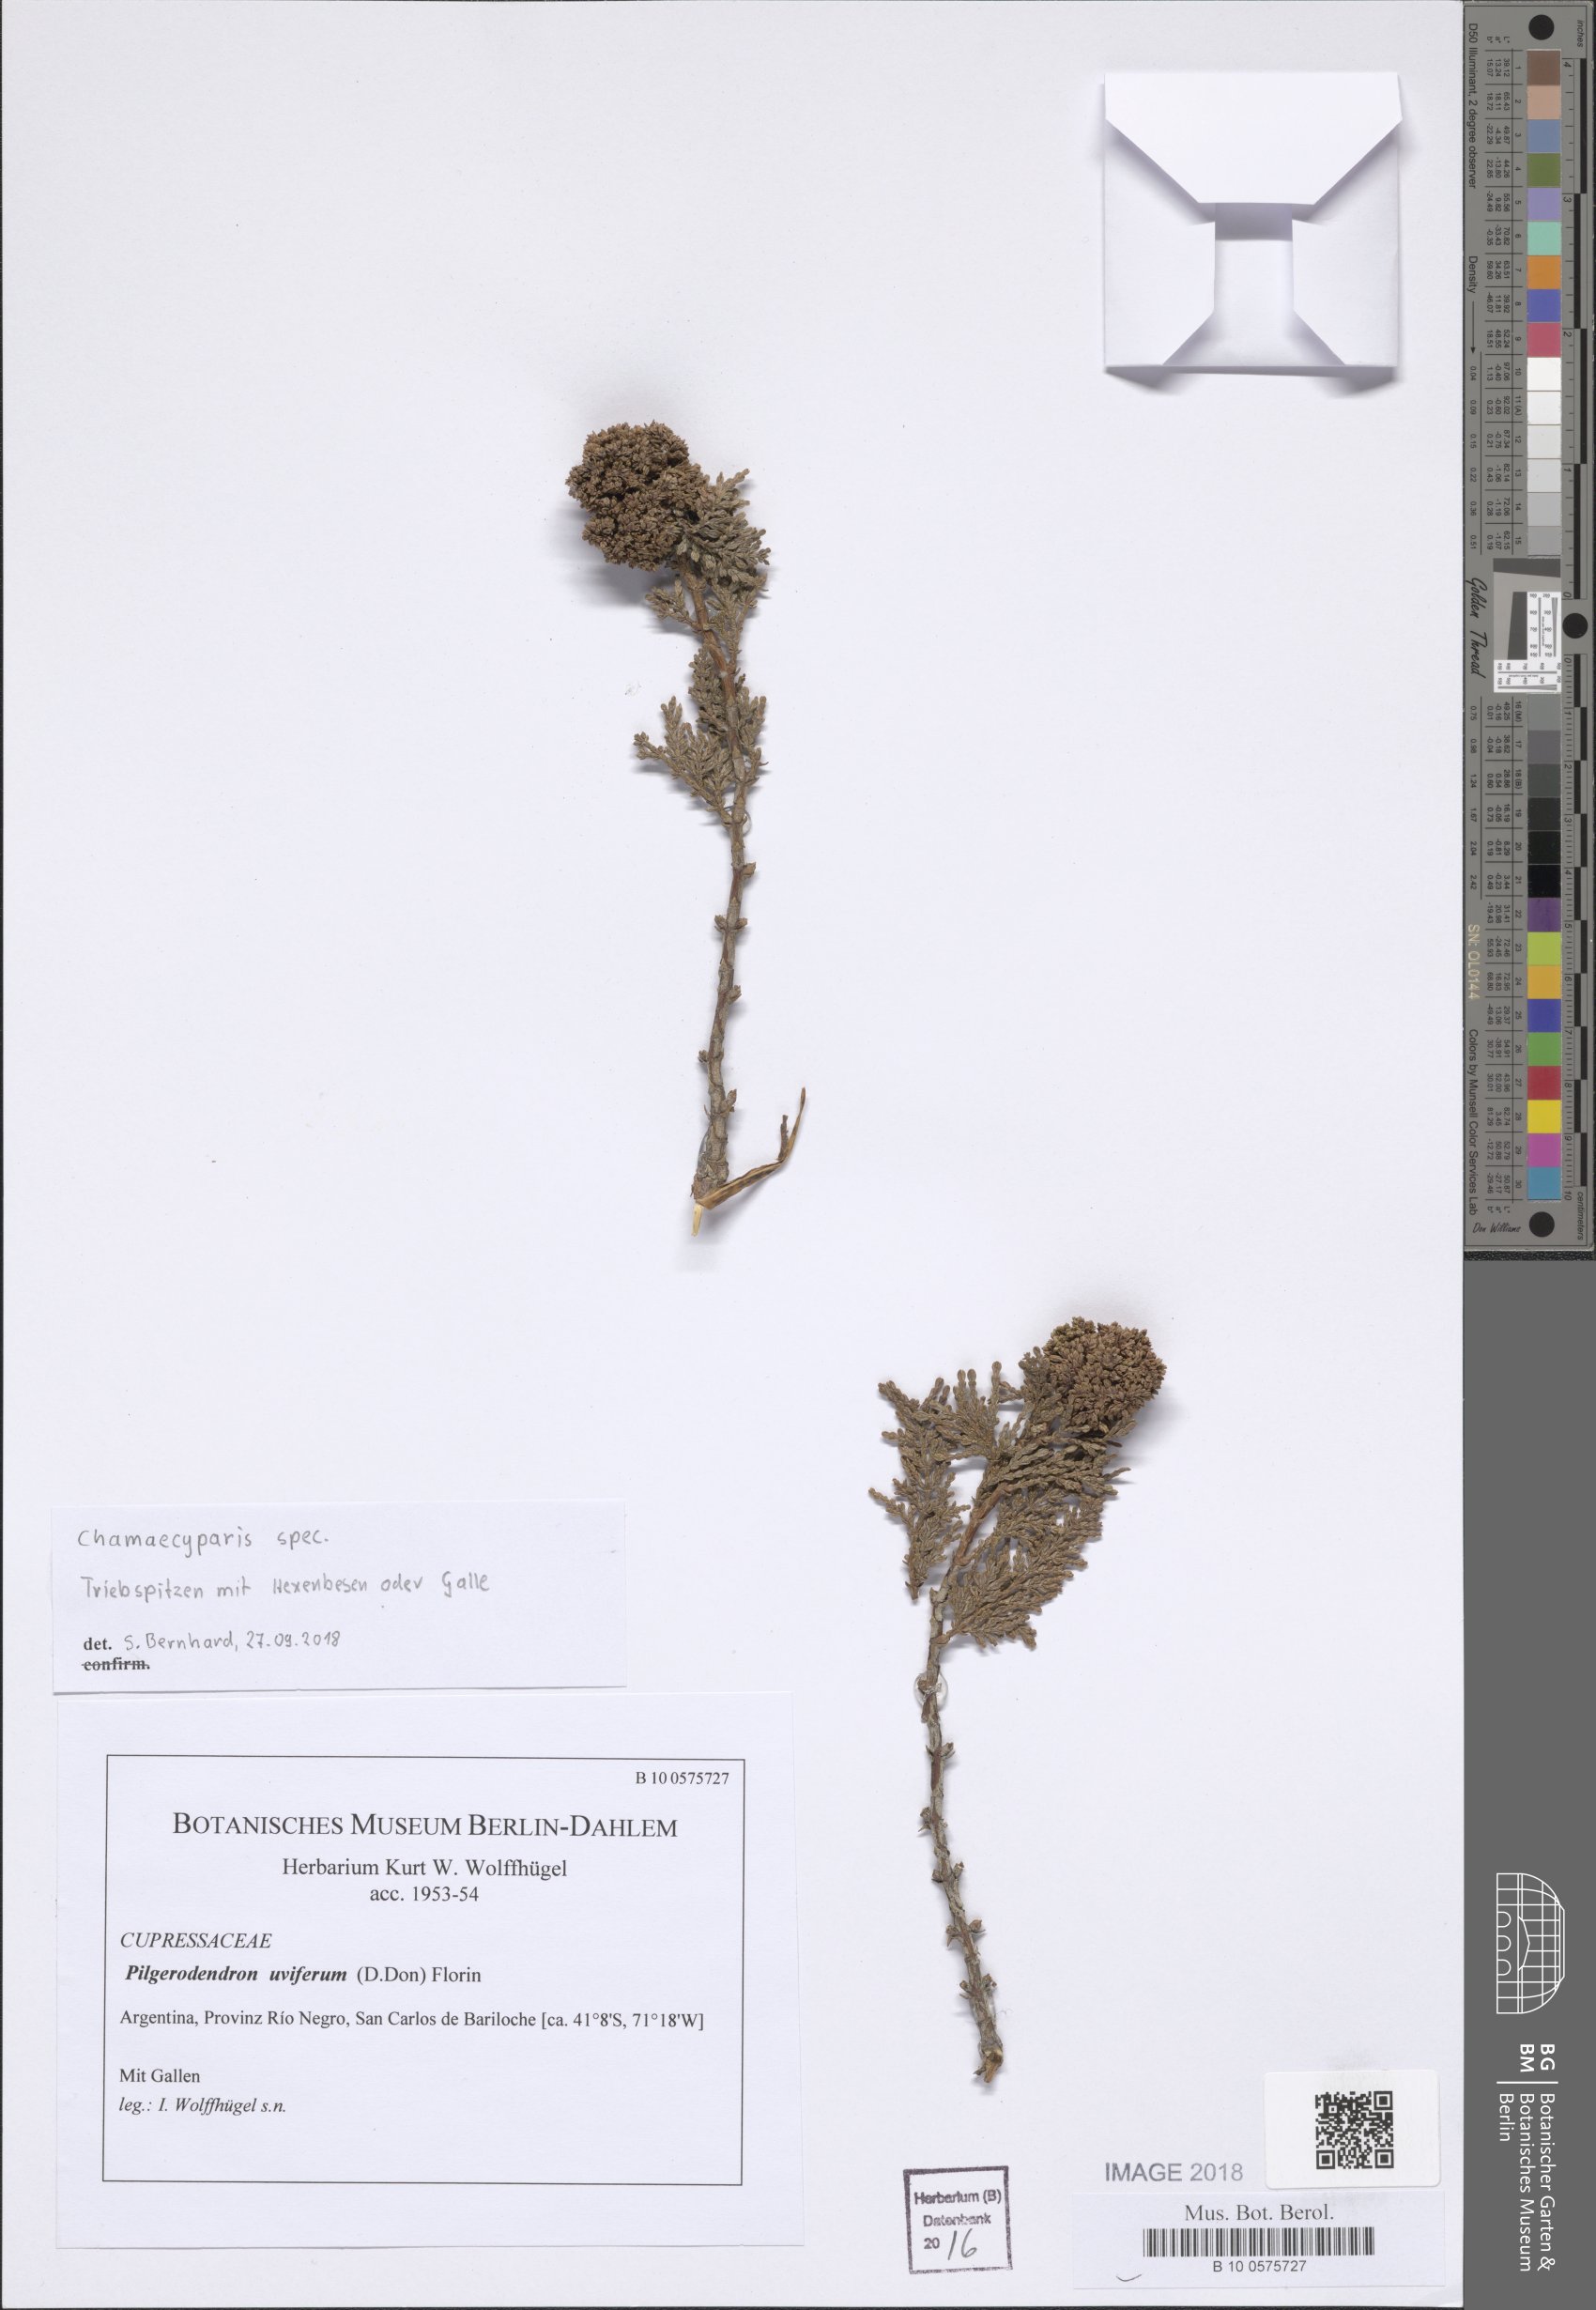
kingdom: Plantae
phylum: Tracheophyta
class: Pinopsida
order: Pinales
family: Cupressaceae
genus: Pilgerodendron
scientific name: Pilgerodendron uviferum
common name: Guaitecas cypress
